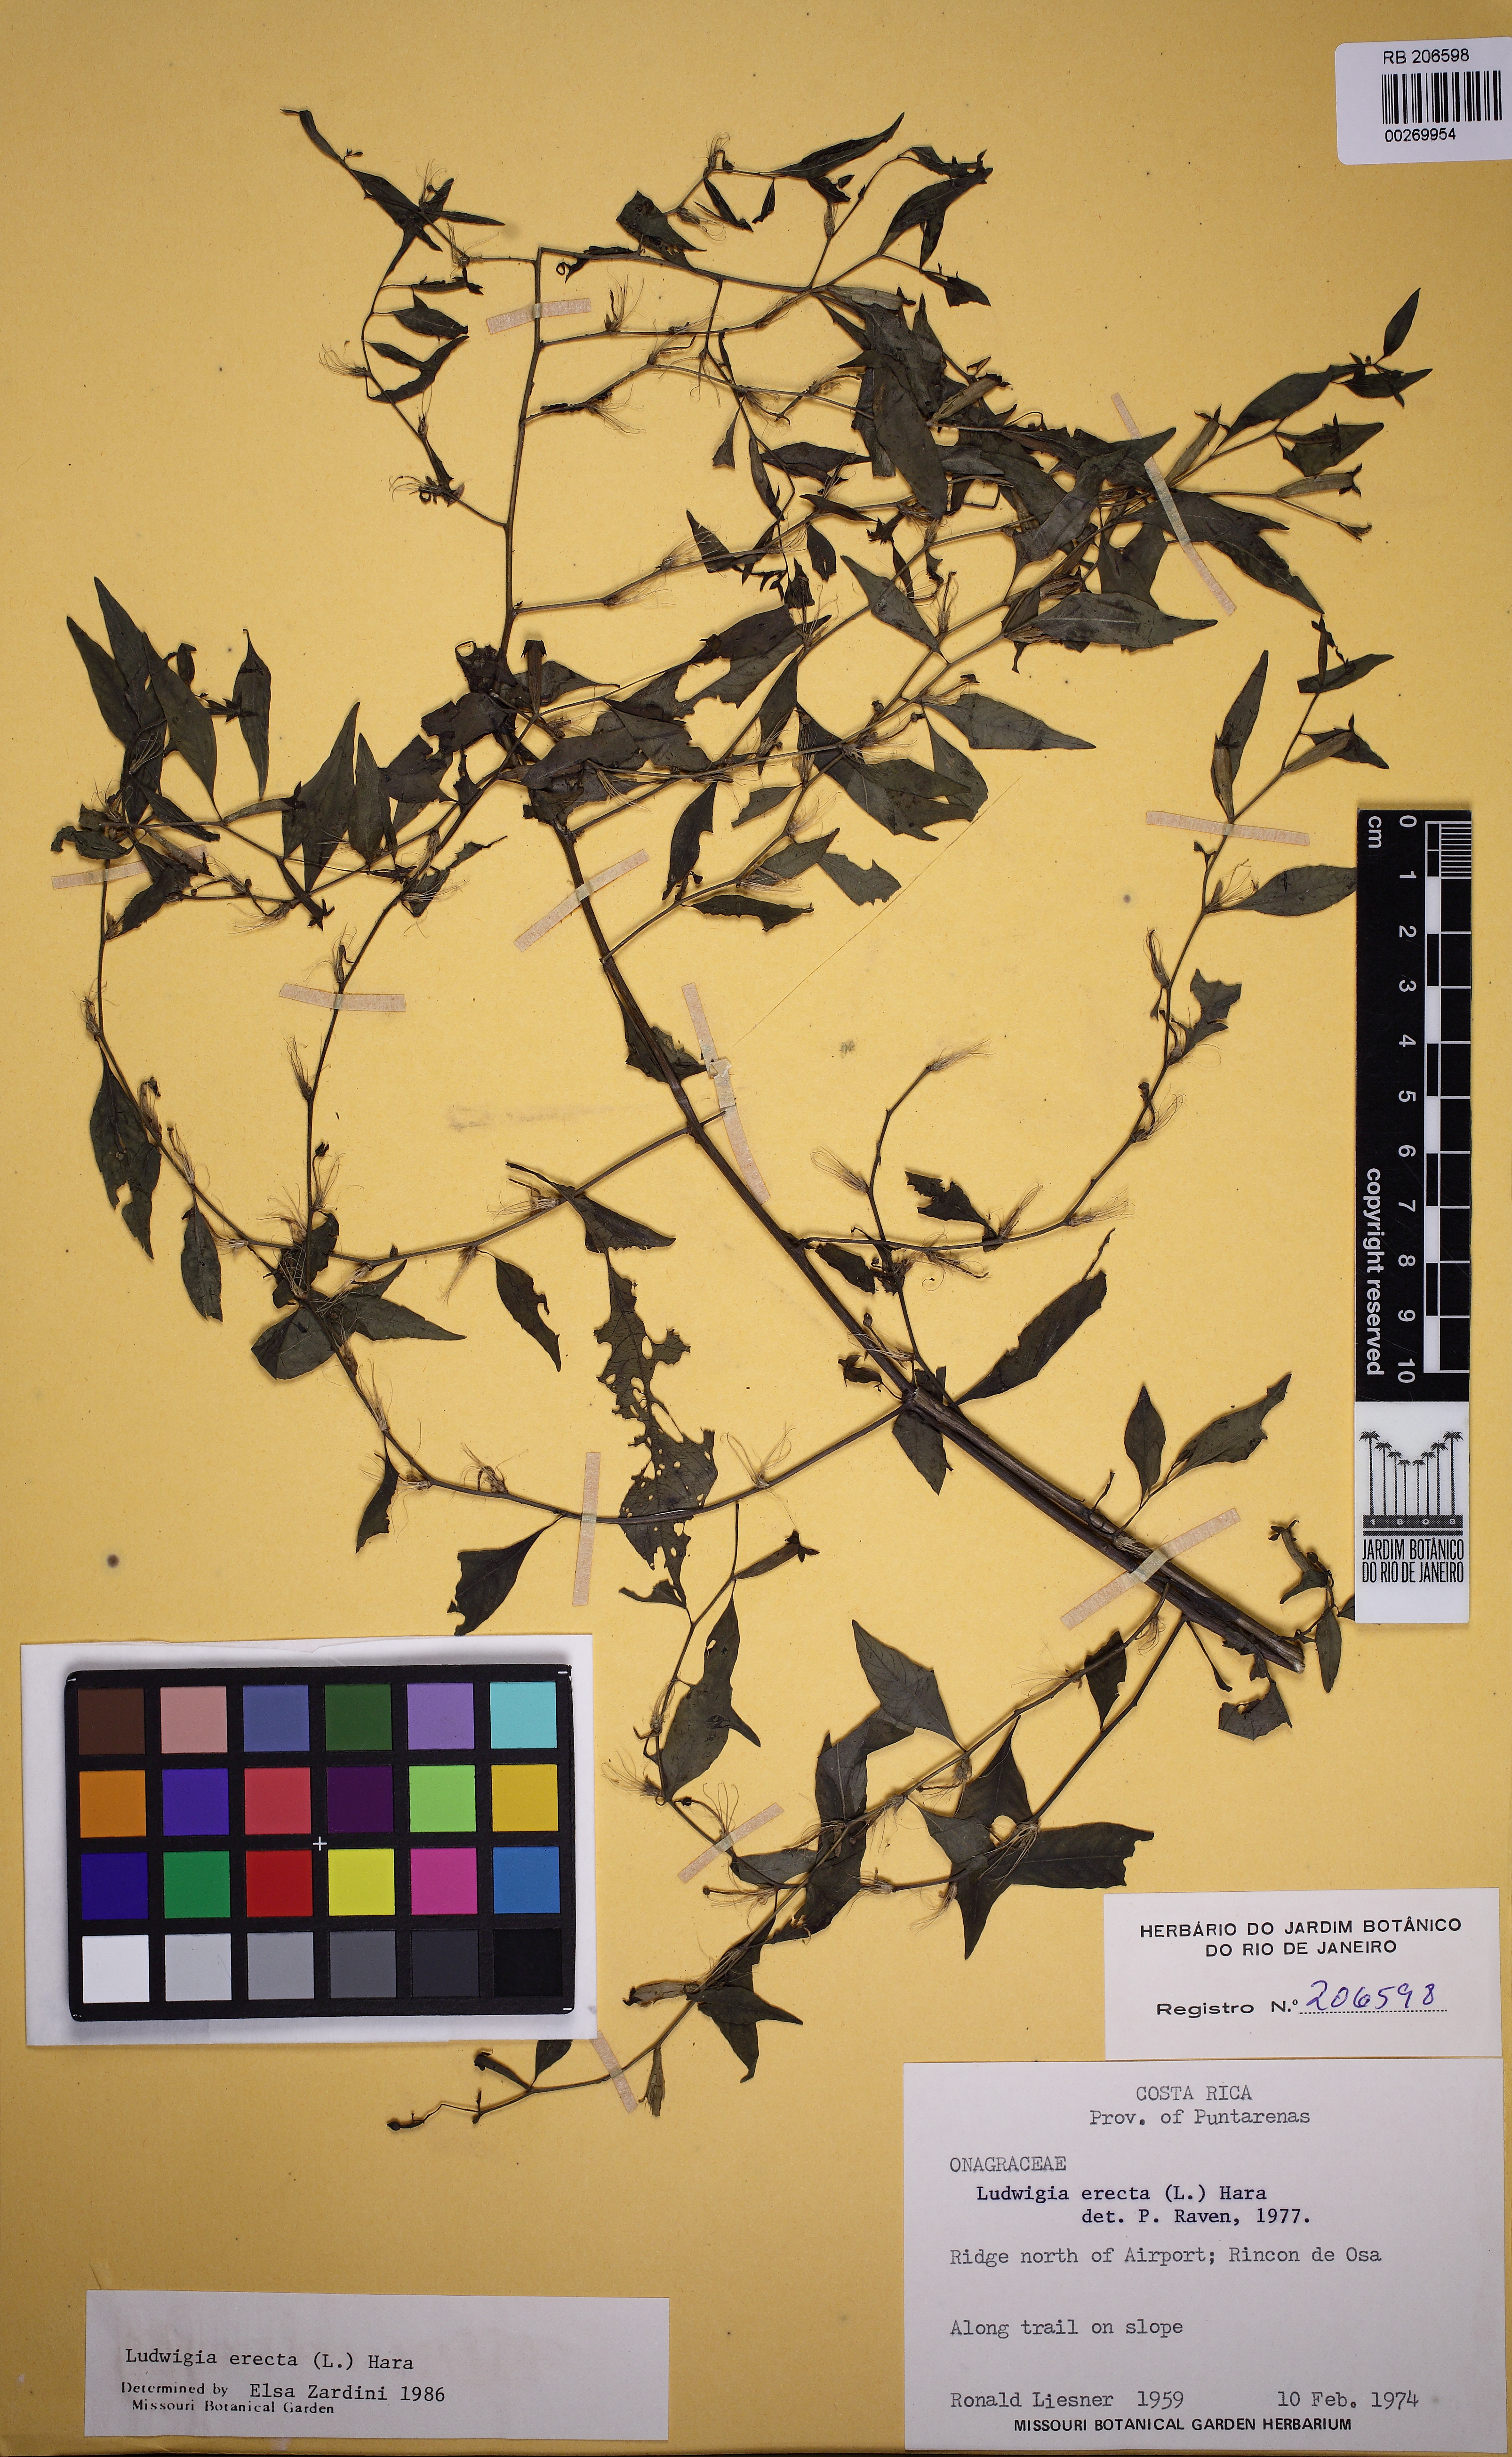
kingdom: Plantae
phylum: Tracheophyta
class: Magnoliopsida
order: Myrtales
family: Onagraceae
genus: Ludwigia
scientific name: Ludwigia erecta
